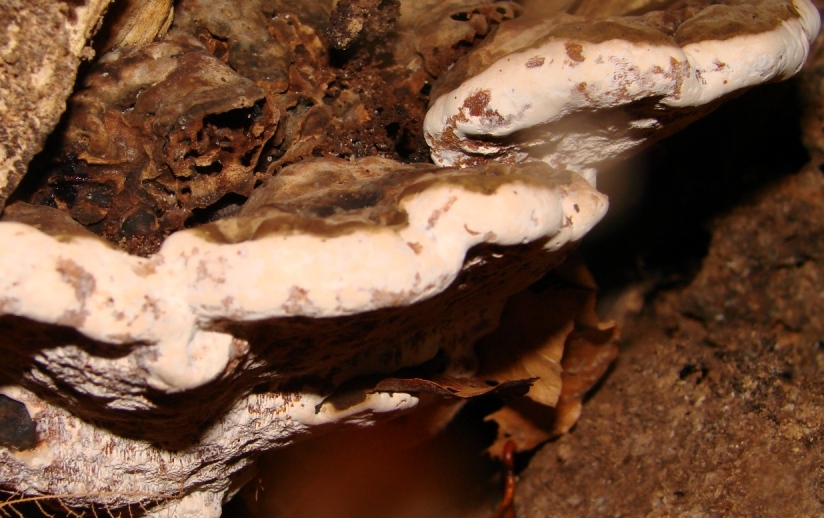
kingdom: Fungi
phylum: Basidiomycota
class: Agaricomycetes
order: Polyporales
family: Polyporaceae
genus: Ganoderma
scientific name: Ganoderma pfeifferi
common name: kobberrød lakporesvamp
